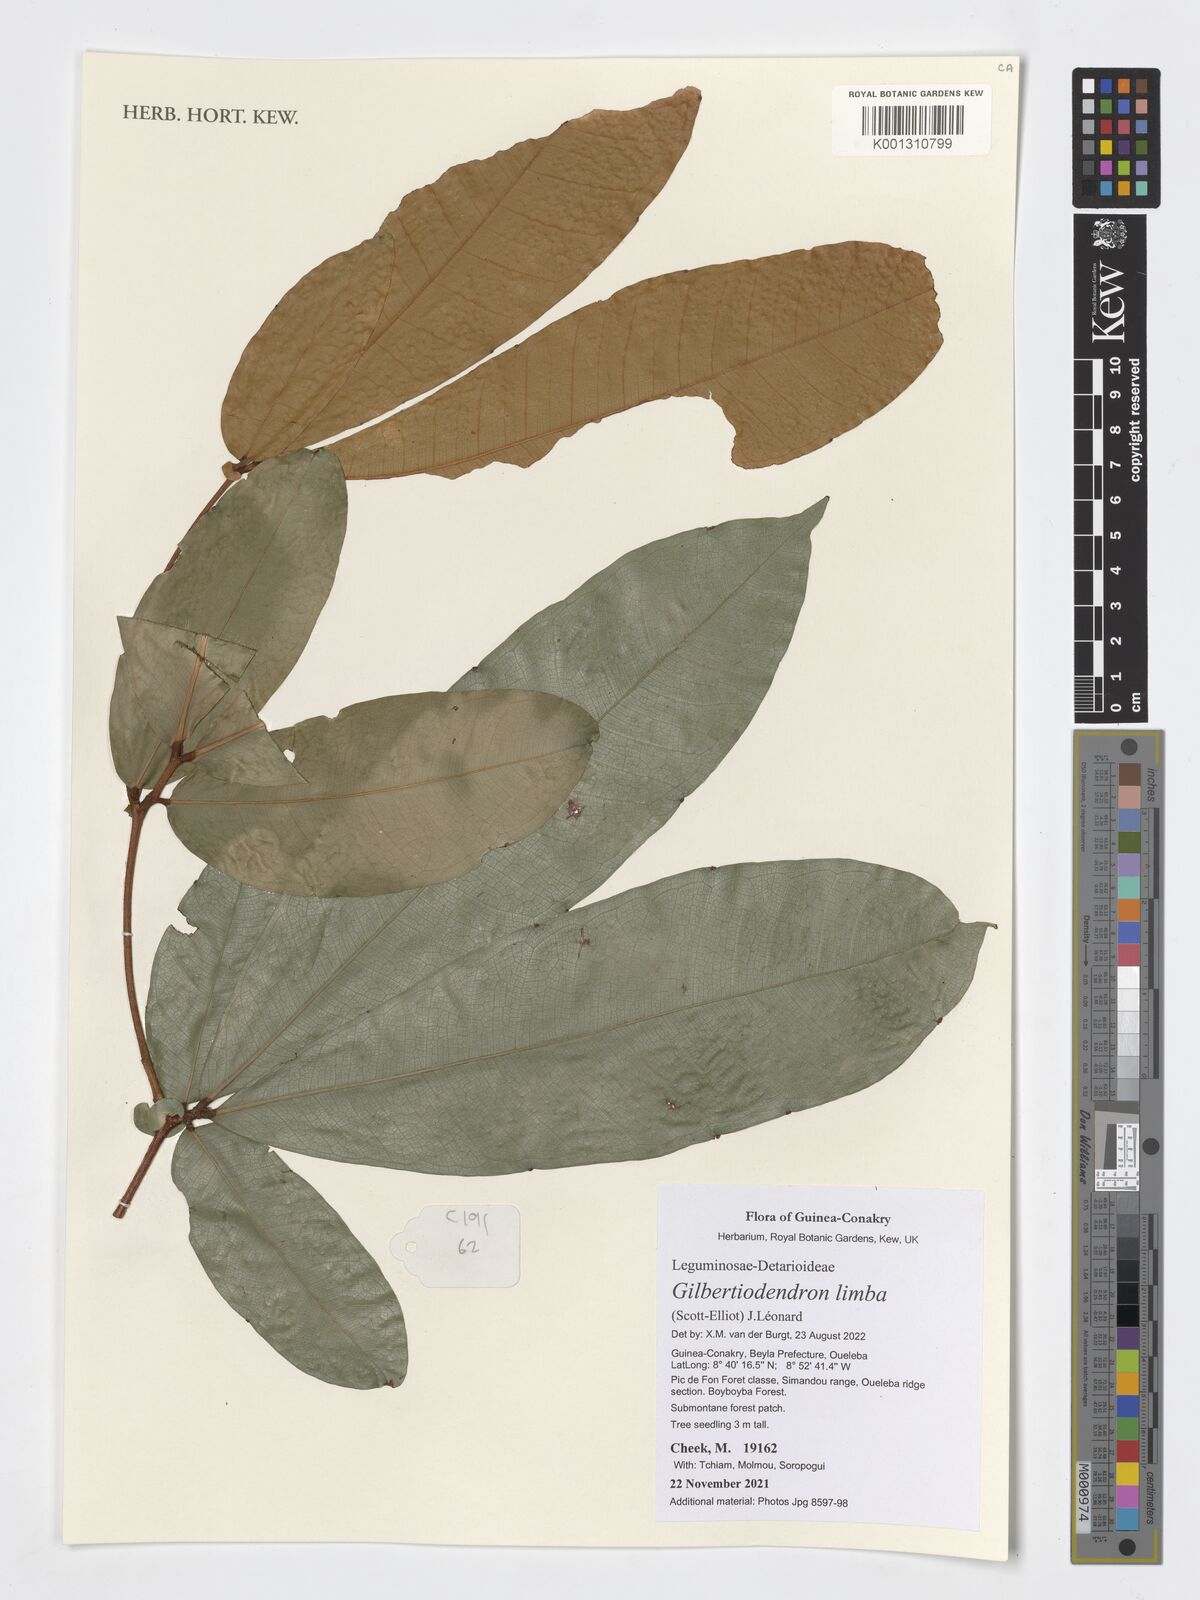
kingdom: Plantae
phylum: Tracheophyta
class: Magnoliopsida
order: Fabales
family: Fabaceae
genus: Gilbertiodendron
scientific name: Gilbertiodendron limba
